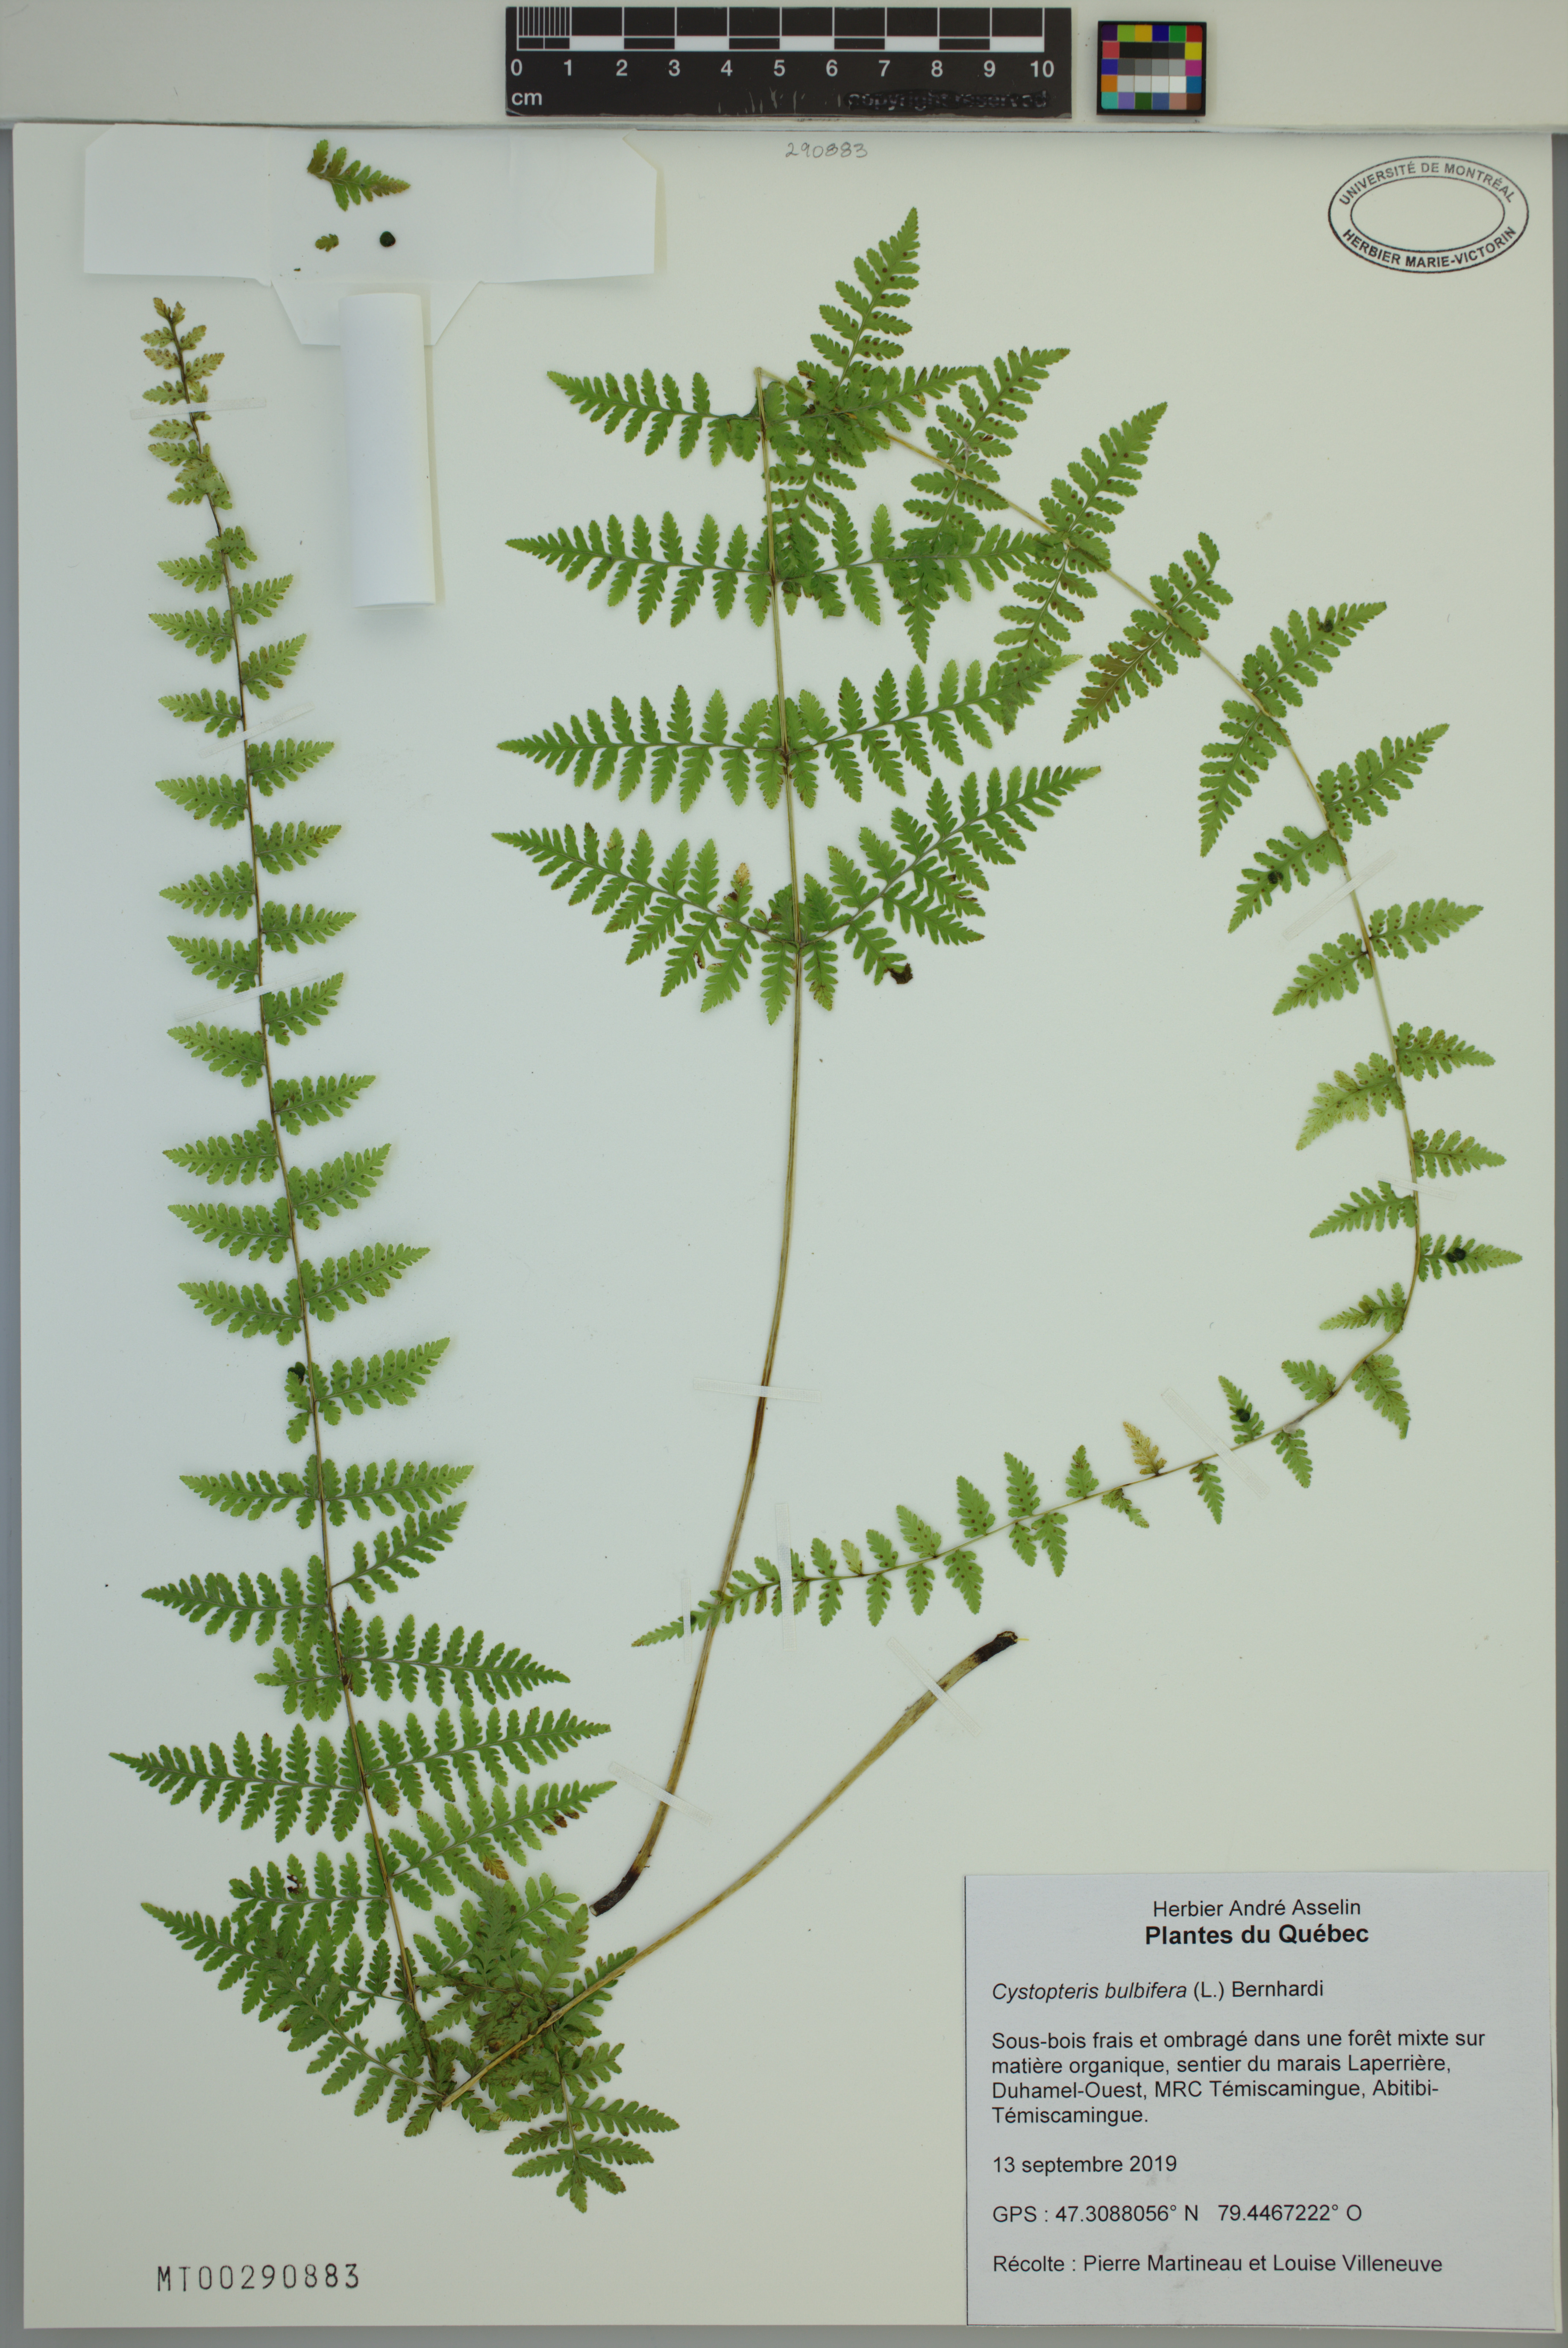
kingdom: Plantae
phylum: Tracheophyta
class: Polypodiopsida
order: Polypodiales
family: Cystopteridaceae
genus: Cystopteris
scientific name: Cystopteris bulbifera
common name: Bulblet bladder fern
